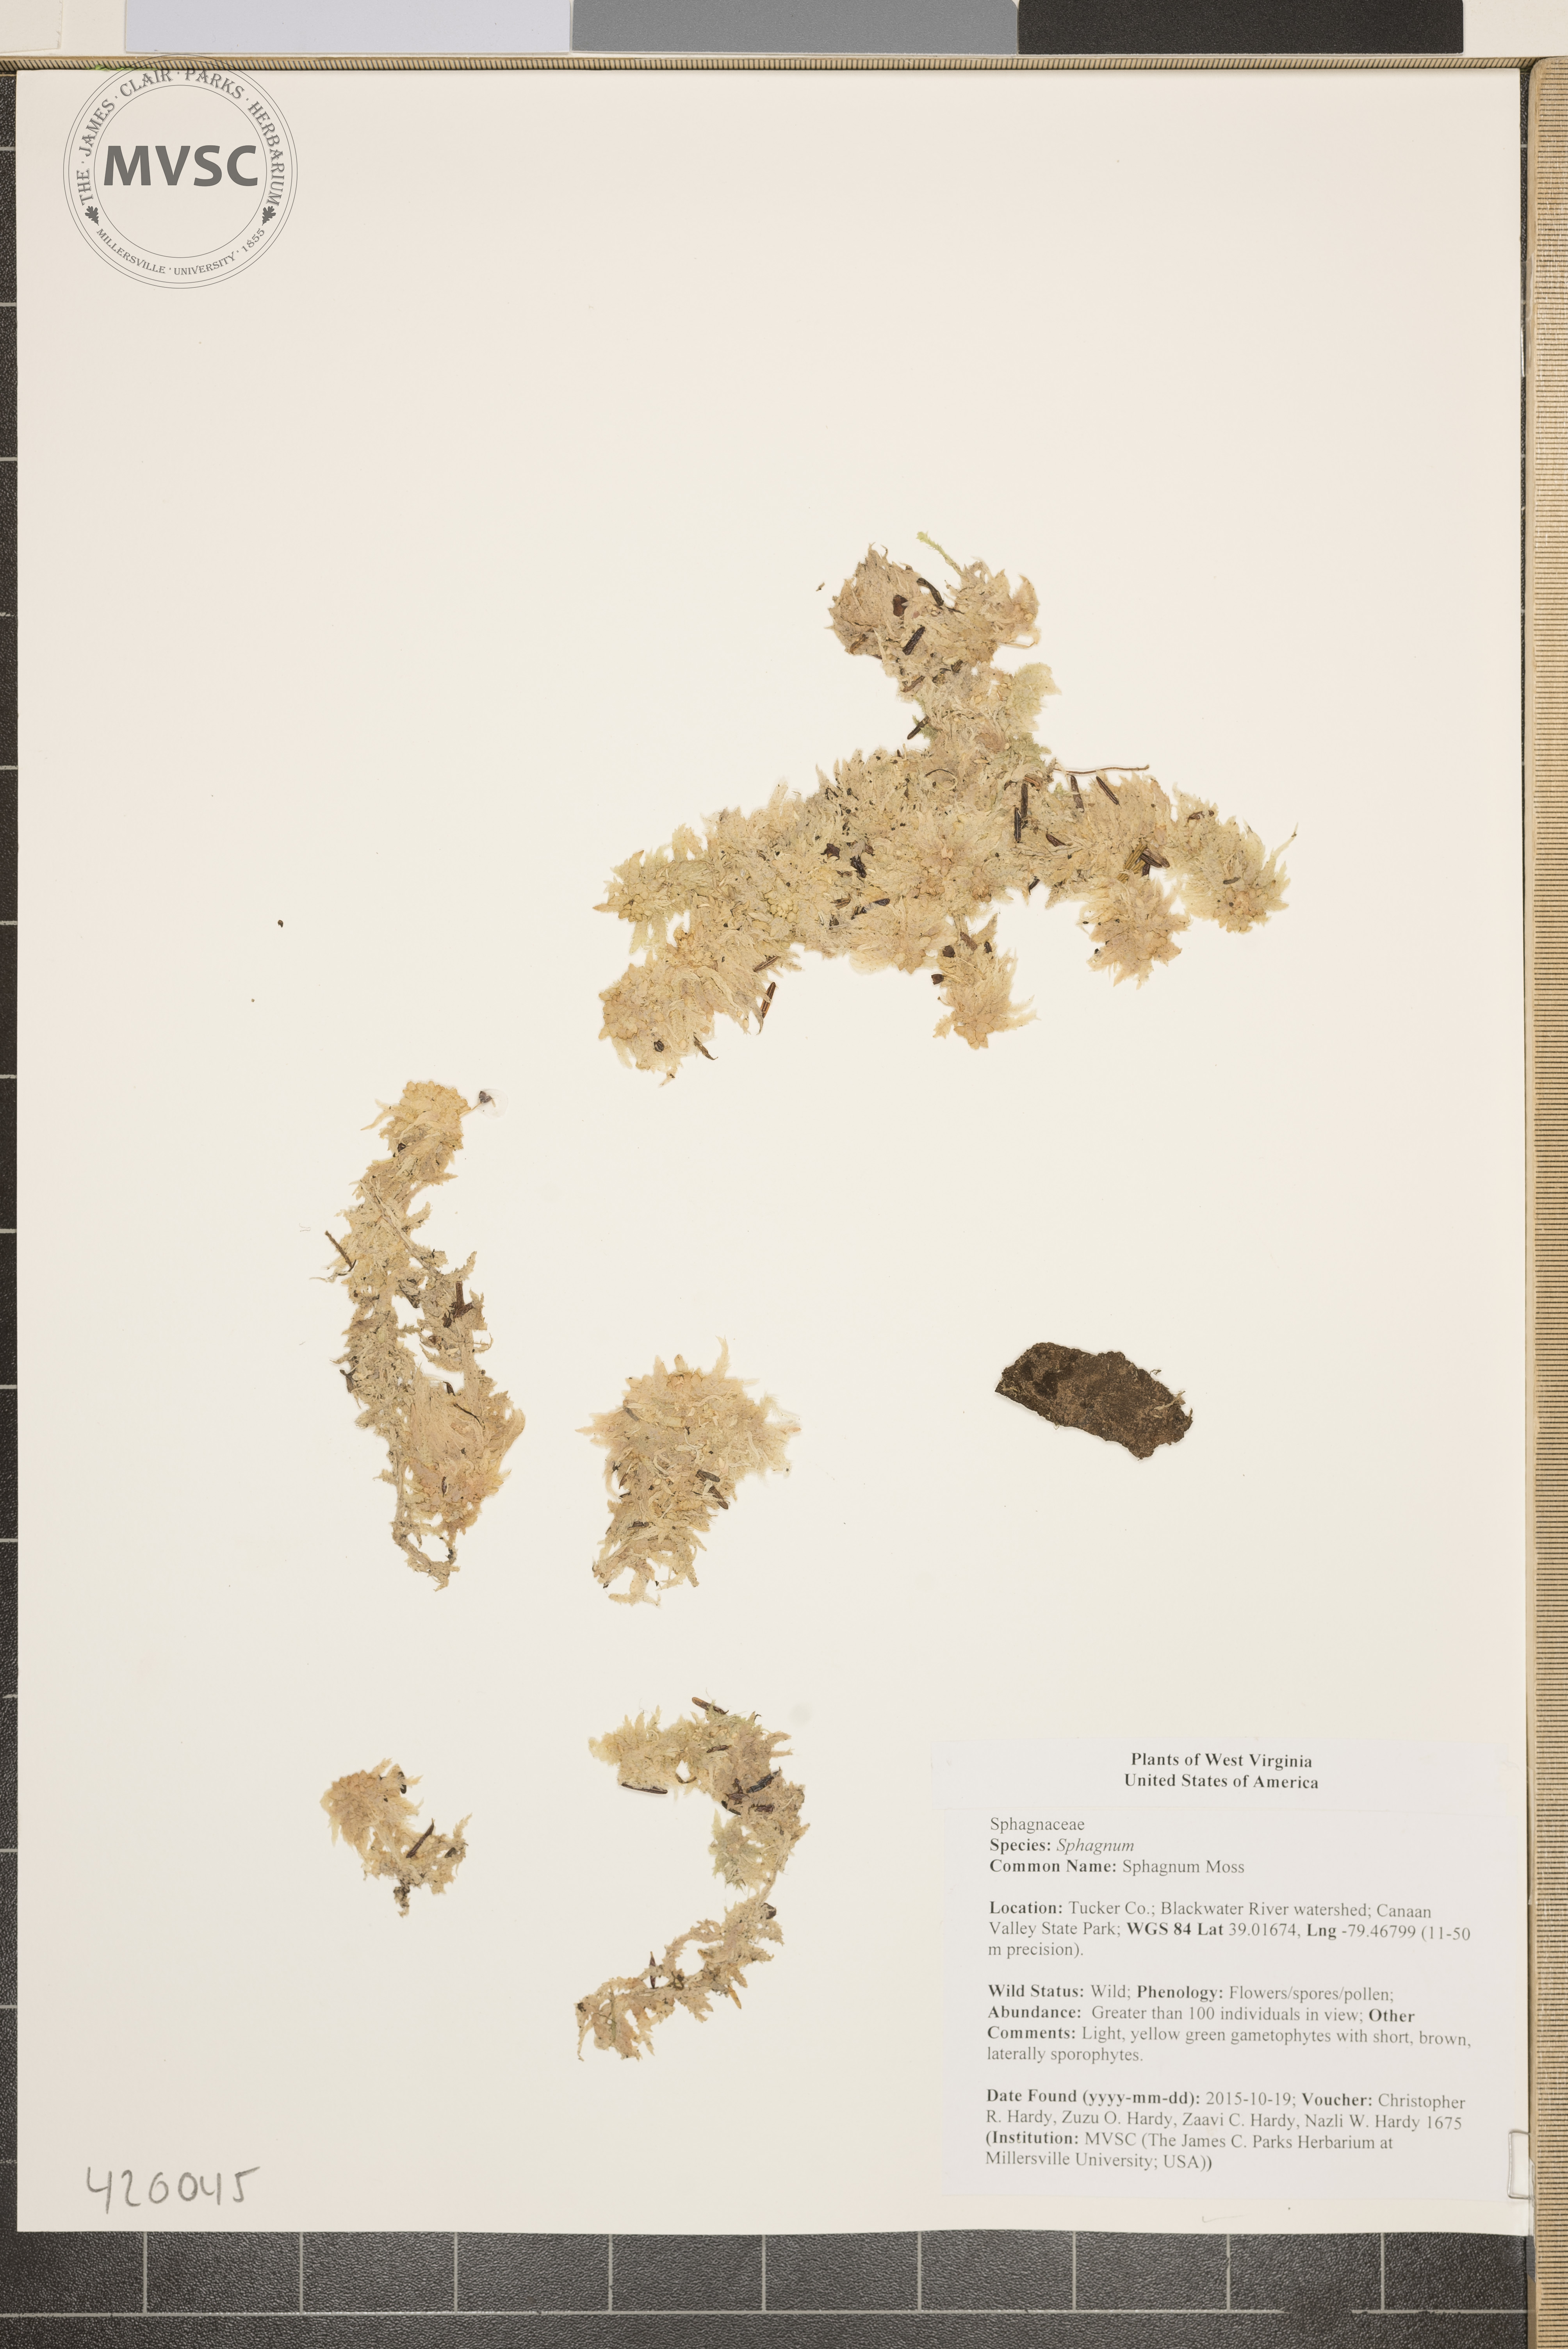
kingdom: Plantae
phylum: Bryophyta
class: Sphagnopsida
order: Sphagnales
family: Sphagnaceae
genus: Sphagnum
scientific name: Sphagnum
